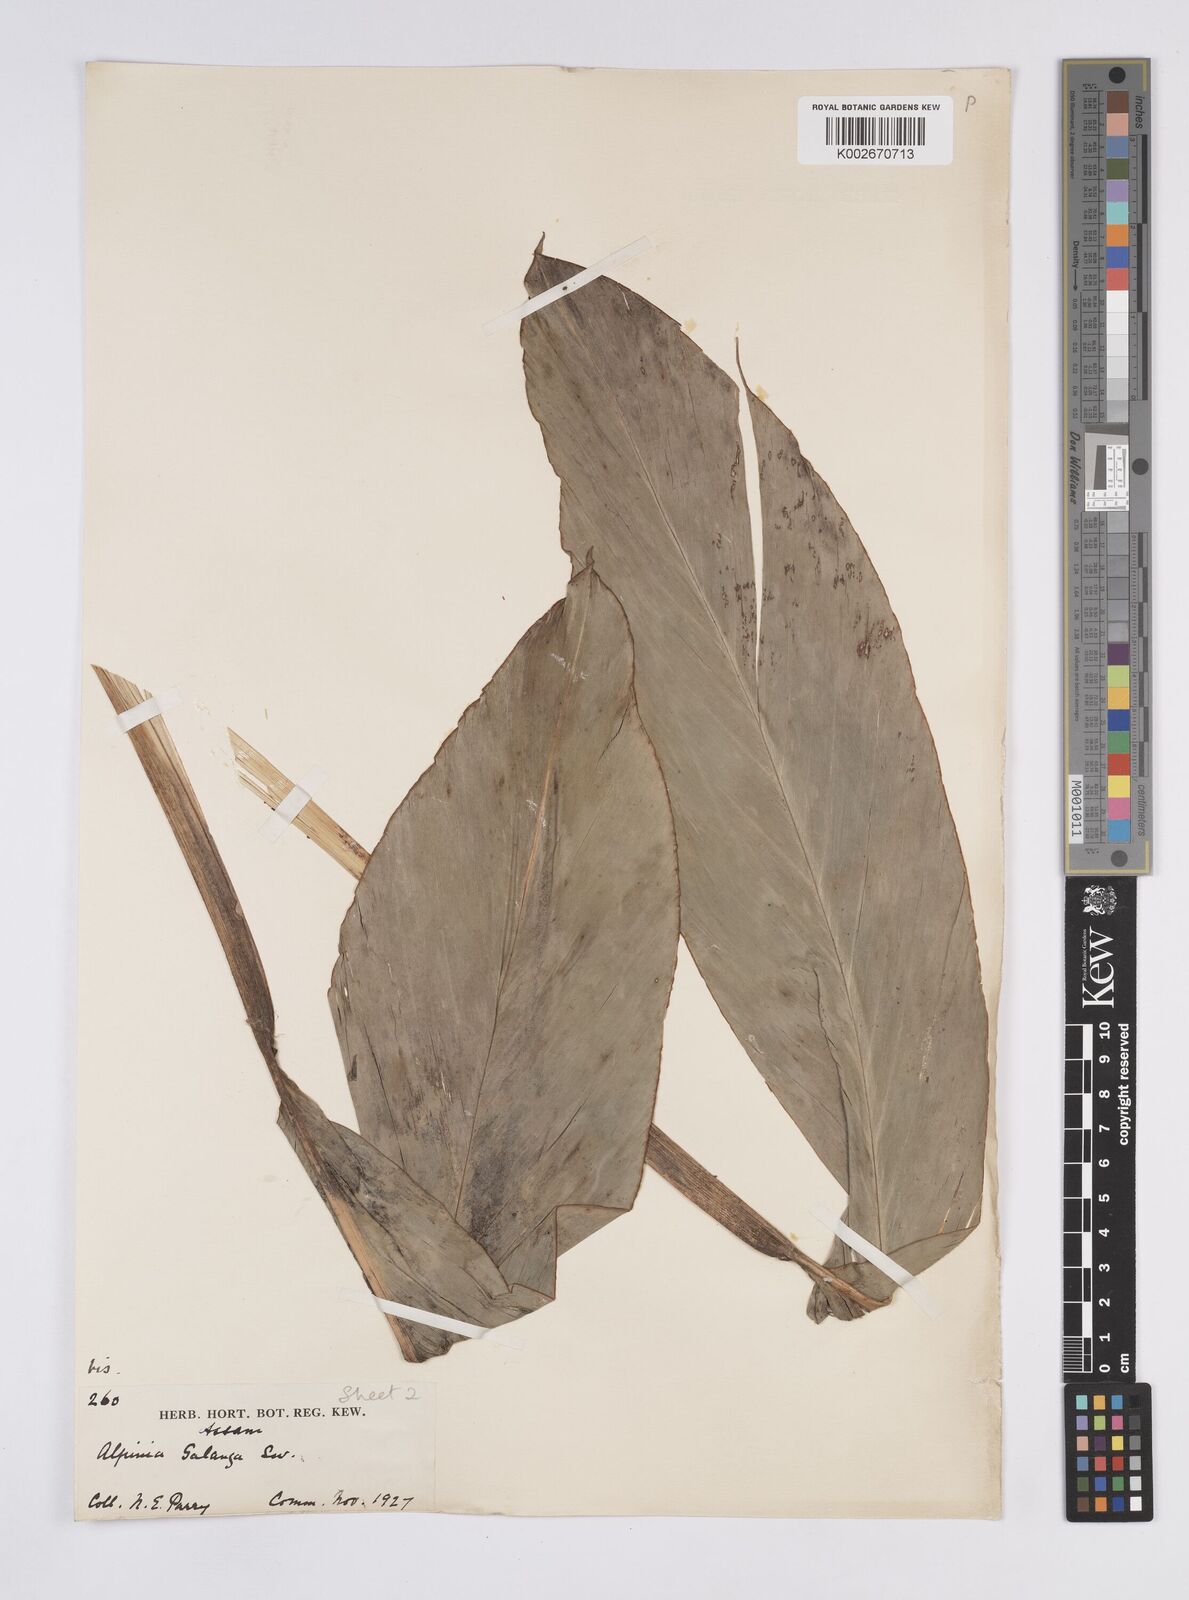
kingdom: Plantae
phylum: Tracheophyta
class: Liliopsida
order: Zingiberales
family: Zingiberaceae
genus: Alpinia
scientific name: Alpinia galanga
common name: Siamese-ginger
